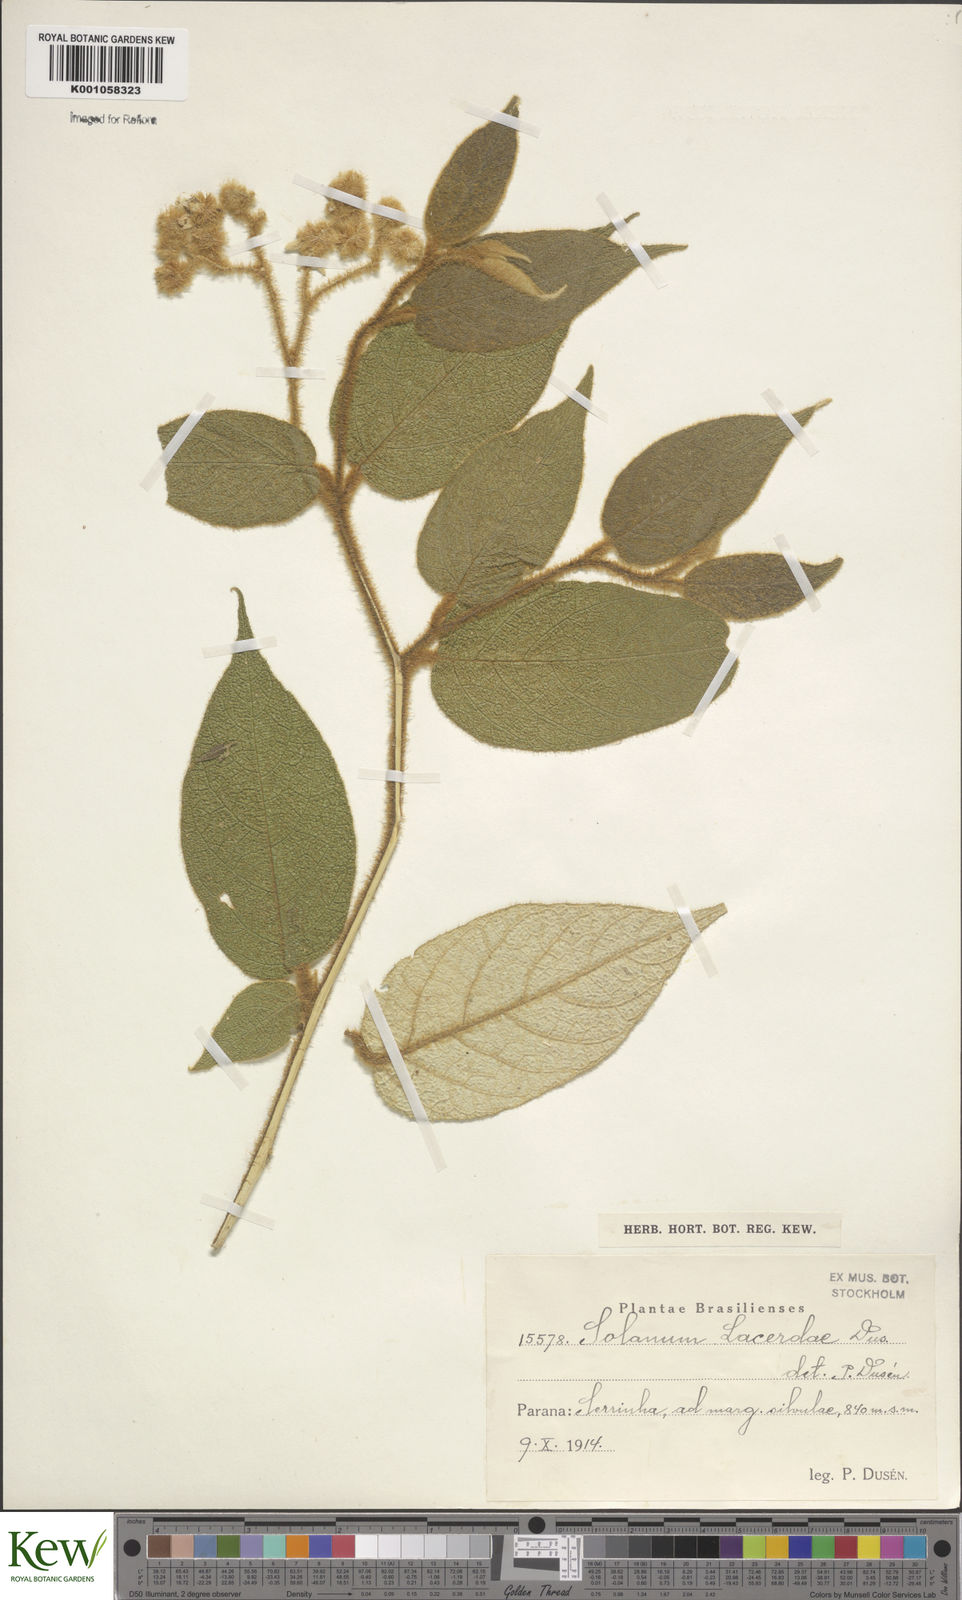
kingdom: Plantae
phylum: Tracheophyta
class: Magnoliopsida
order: Solanales
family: Solanaceae
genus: Solanum
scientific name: Solanum
